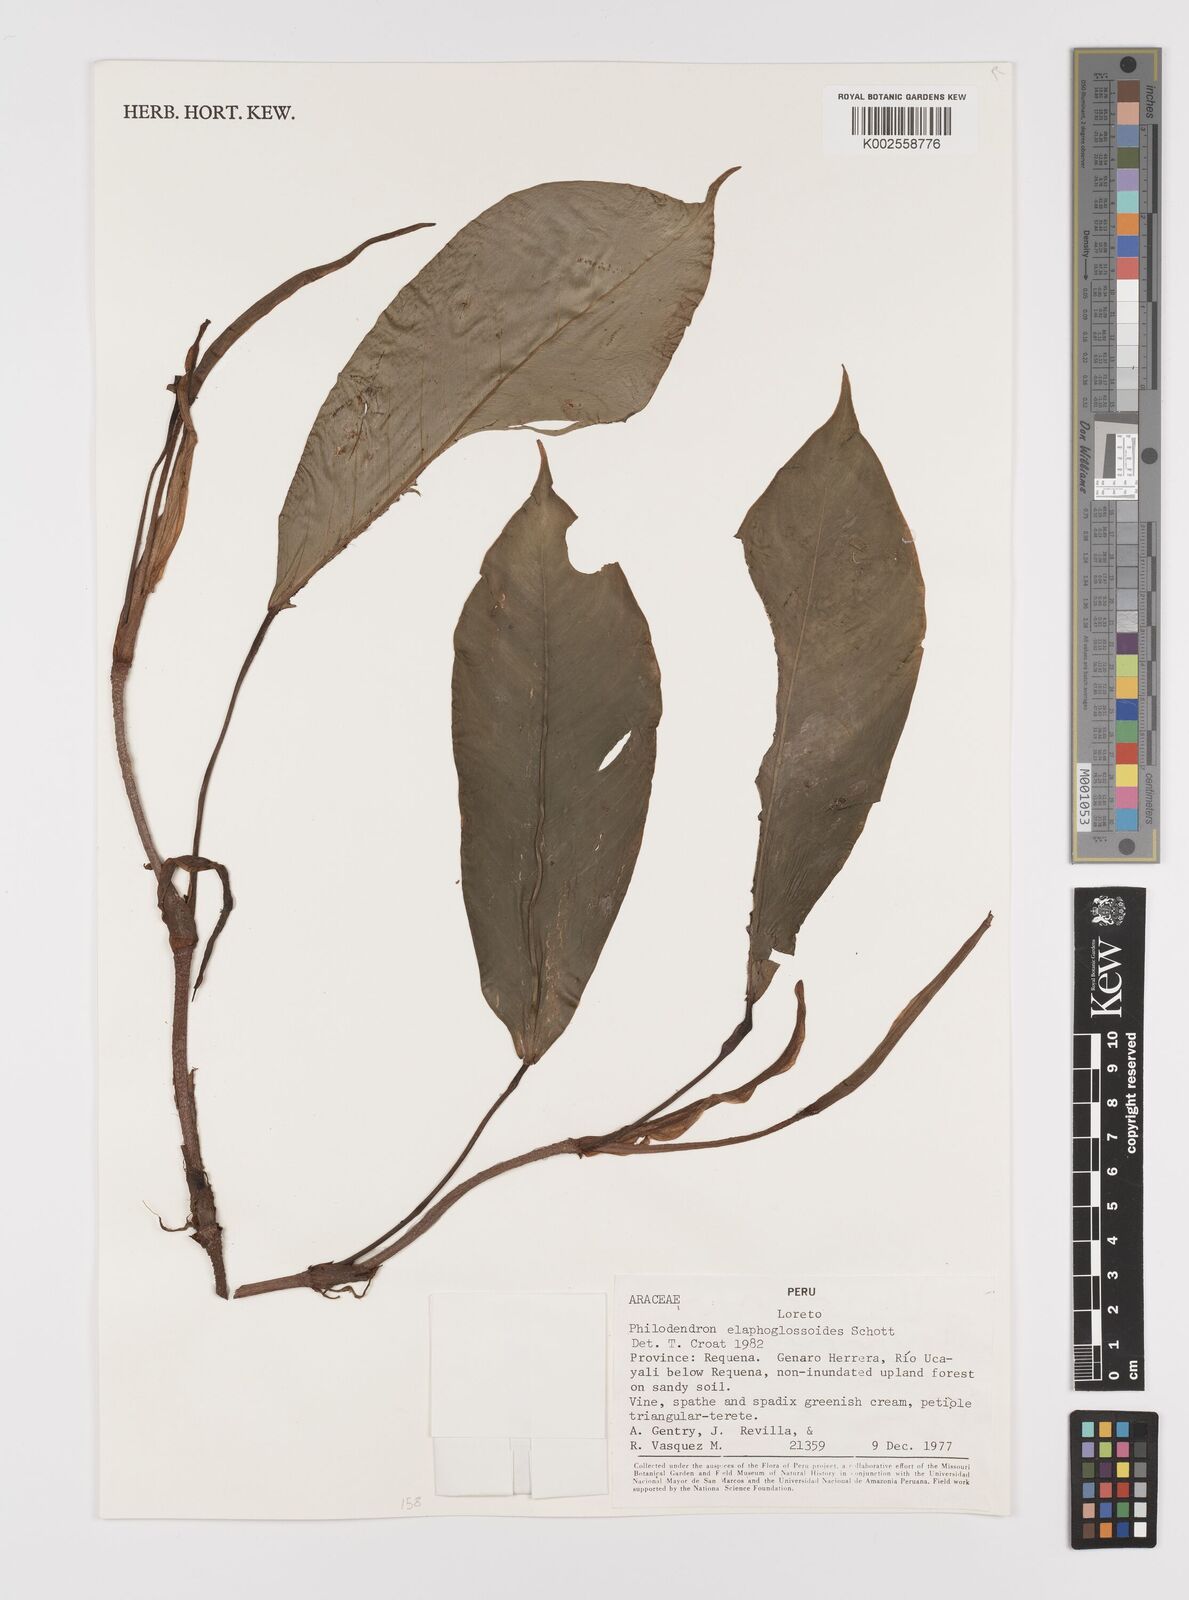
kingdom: Plantae
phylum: Tracheophyta
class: Liliopsida
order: Alismatales
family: Araceae
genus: Philodendron
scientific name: Philodendron elaphoglossoides
